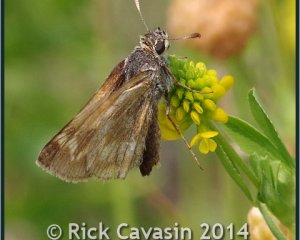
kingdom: Animalia
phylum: Arthropoda
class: Insecta
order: Lepidoptera
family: Hesperiidae
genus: Polites
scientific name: Polites
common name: Long Dash Skipper
